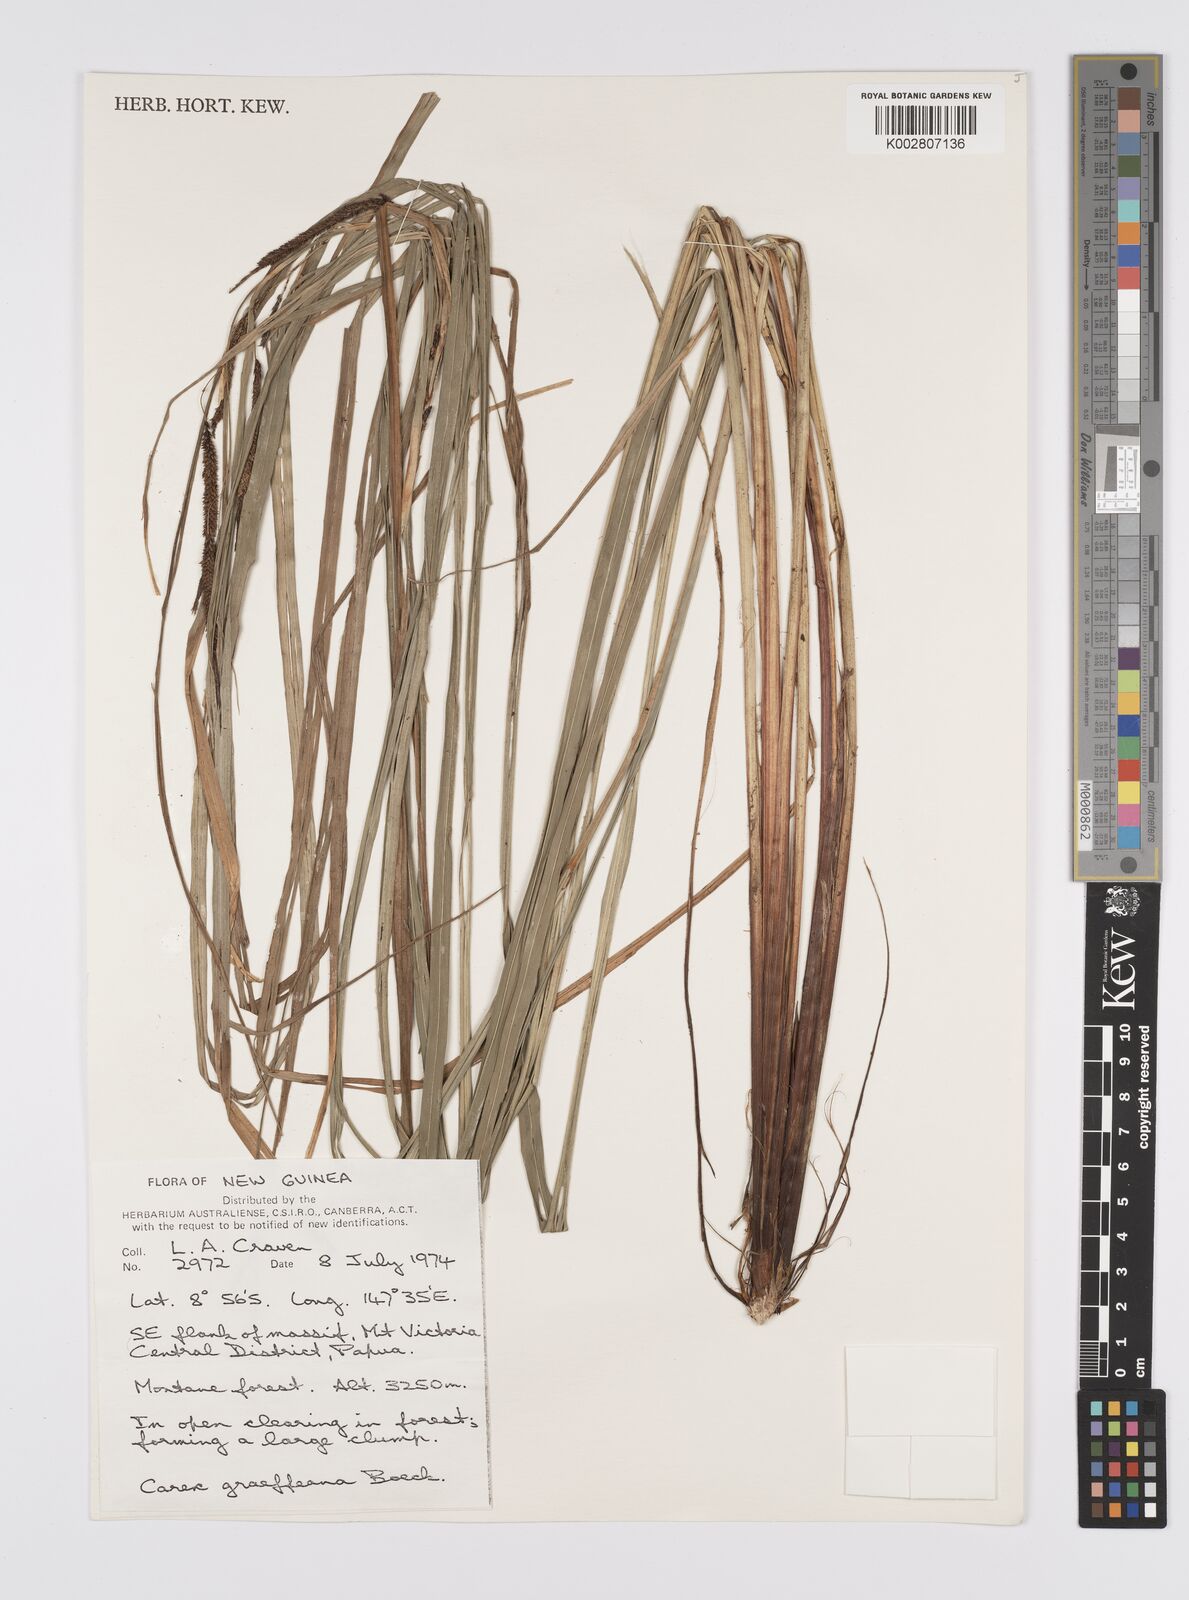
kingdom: Plantae
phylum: Tracheophyta
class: Liliopsida
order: Poales
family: Cyperaceae
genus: Carex
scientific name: Carex graeffeana
